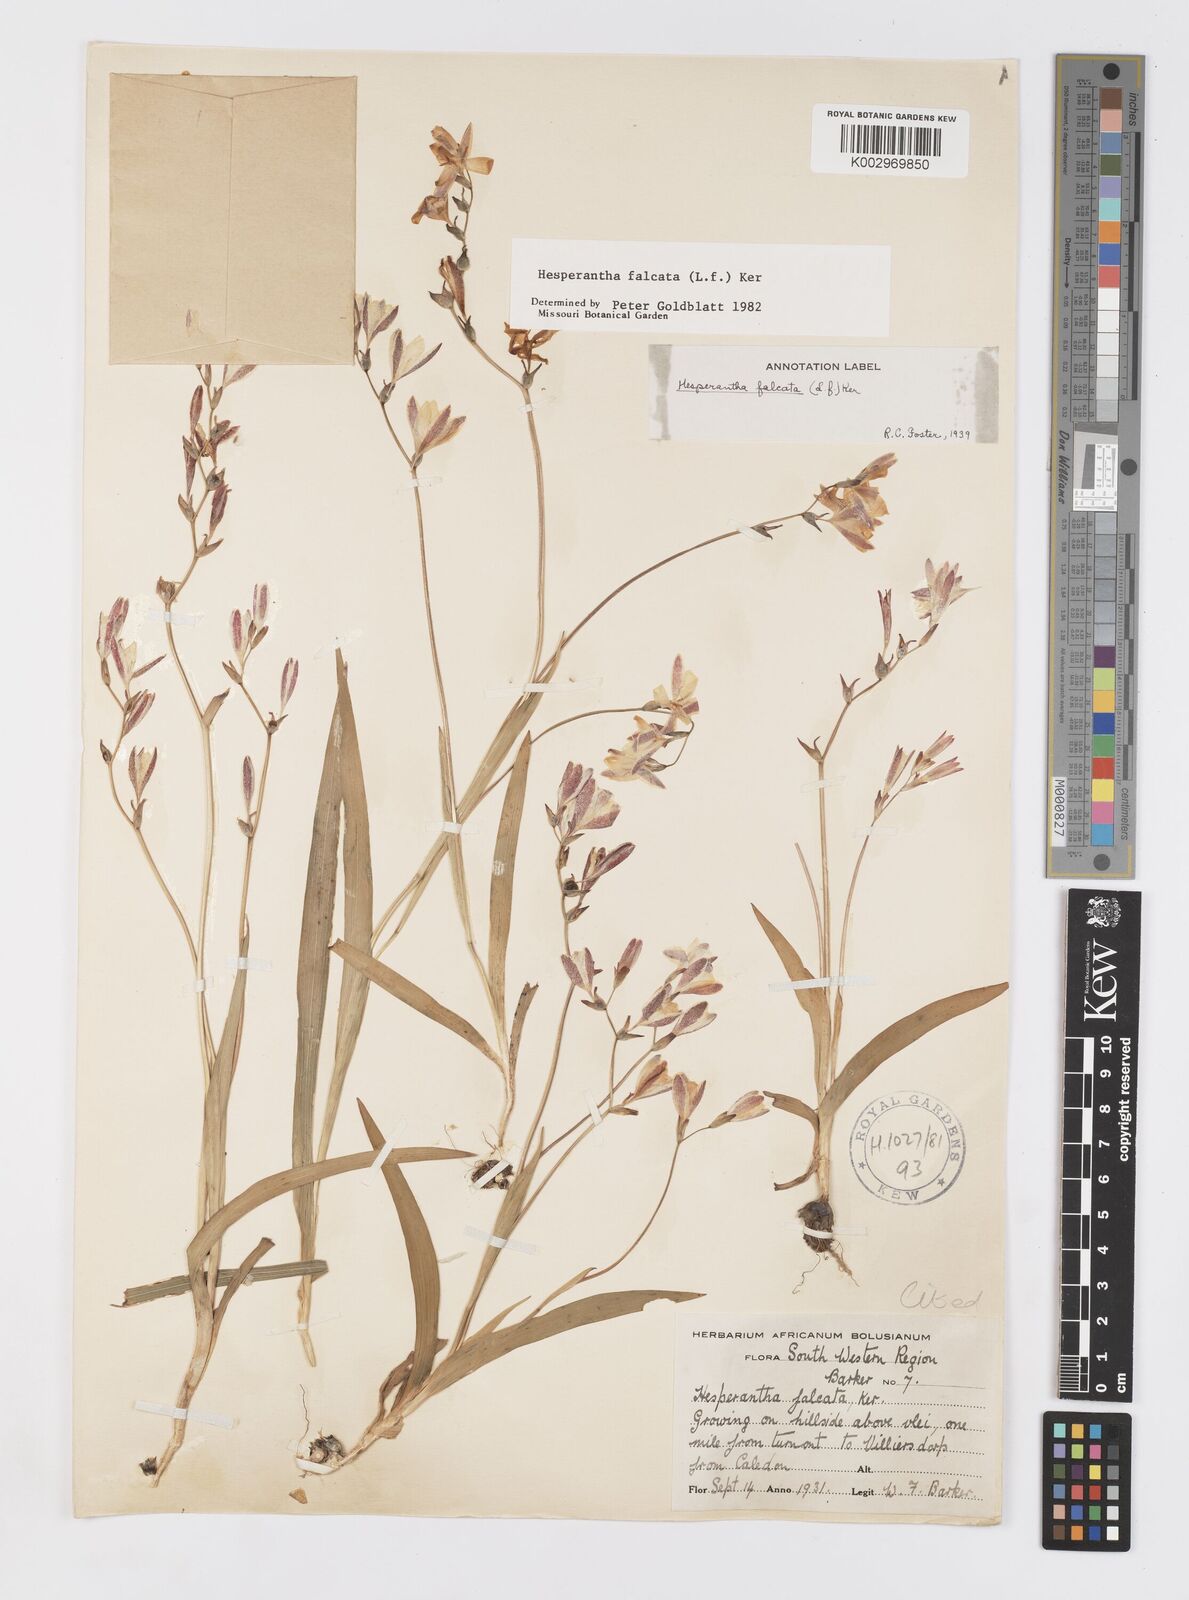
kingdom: Plantae
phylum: Tracheophyta
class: Liliopsida
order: Asparagales
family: Iridaceae
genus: Hesperantha
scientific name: Hesperantha falcata
